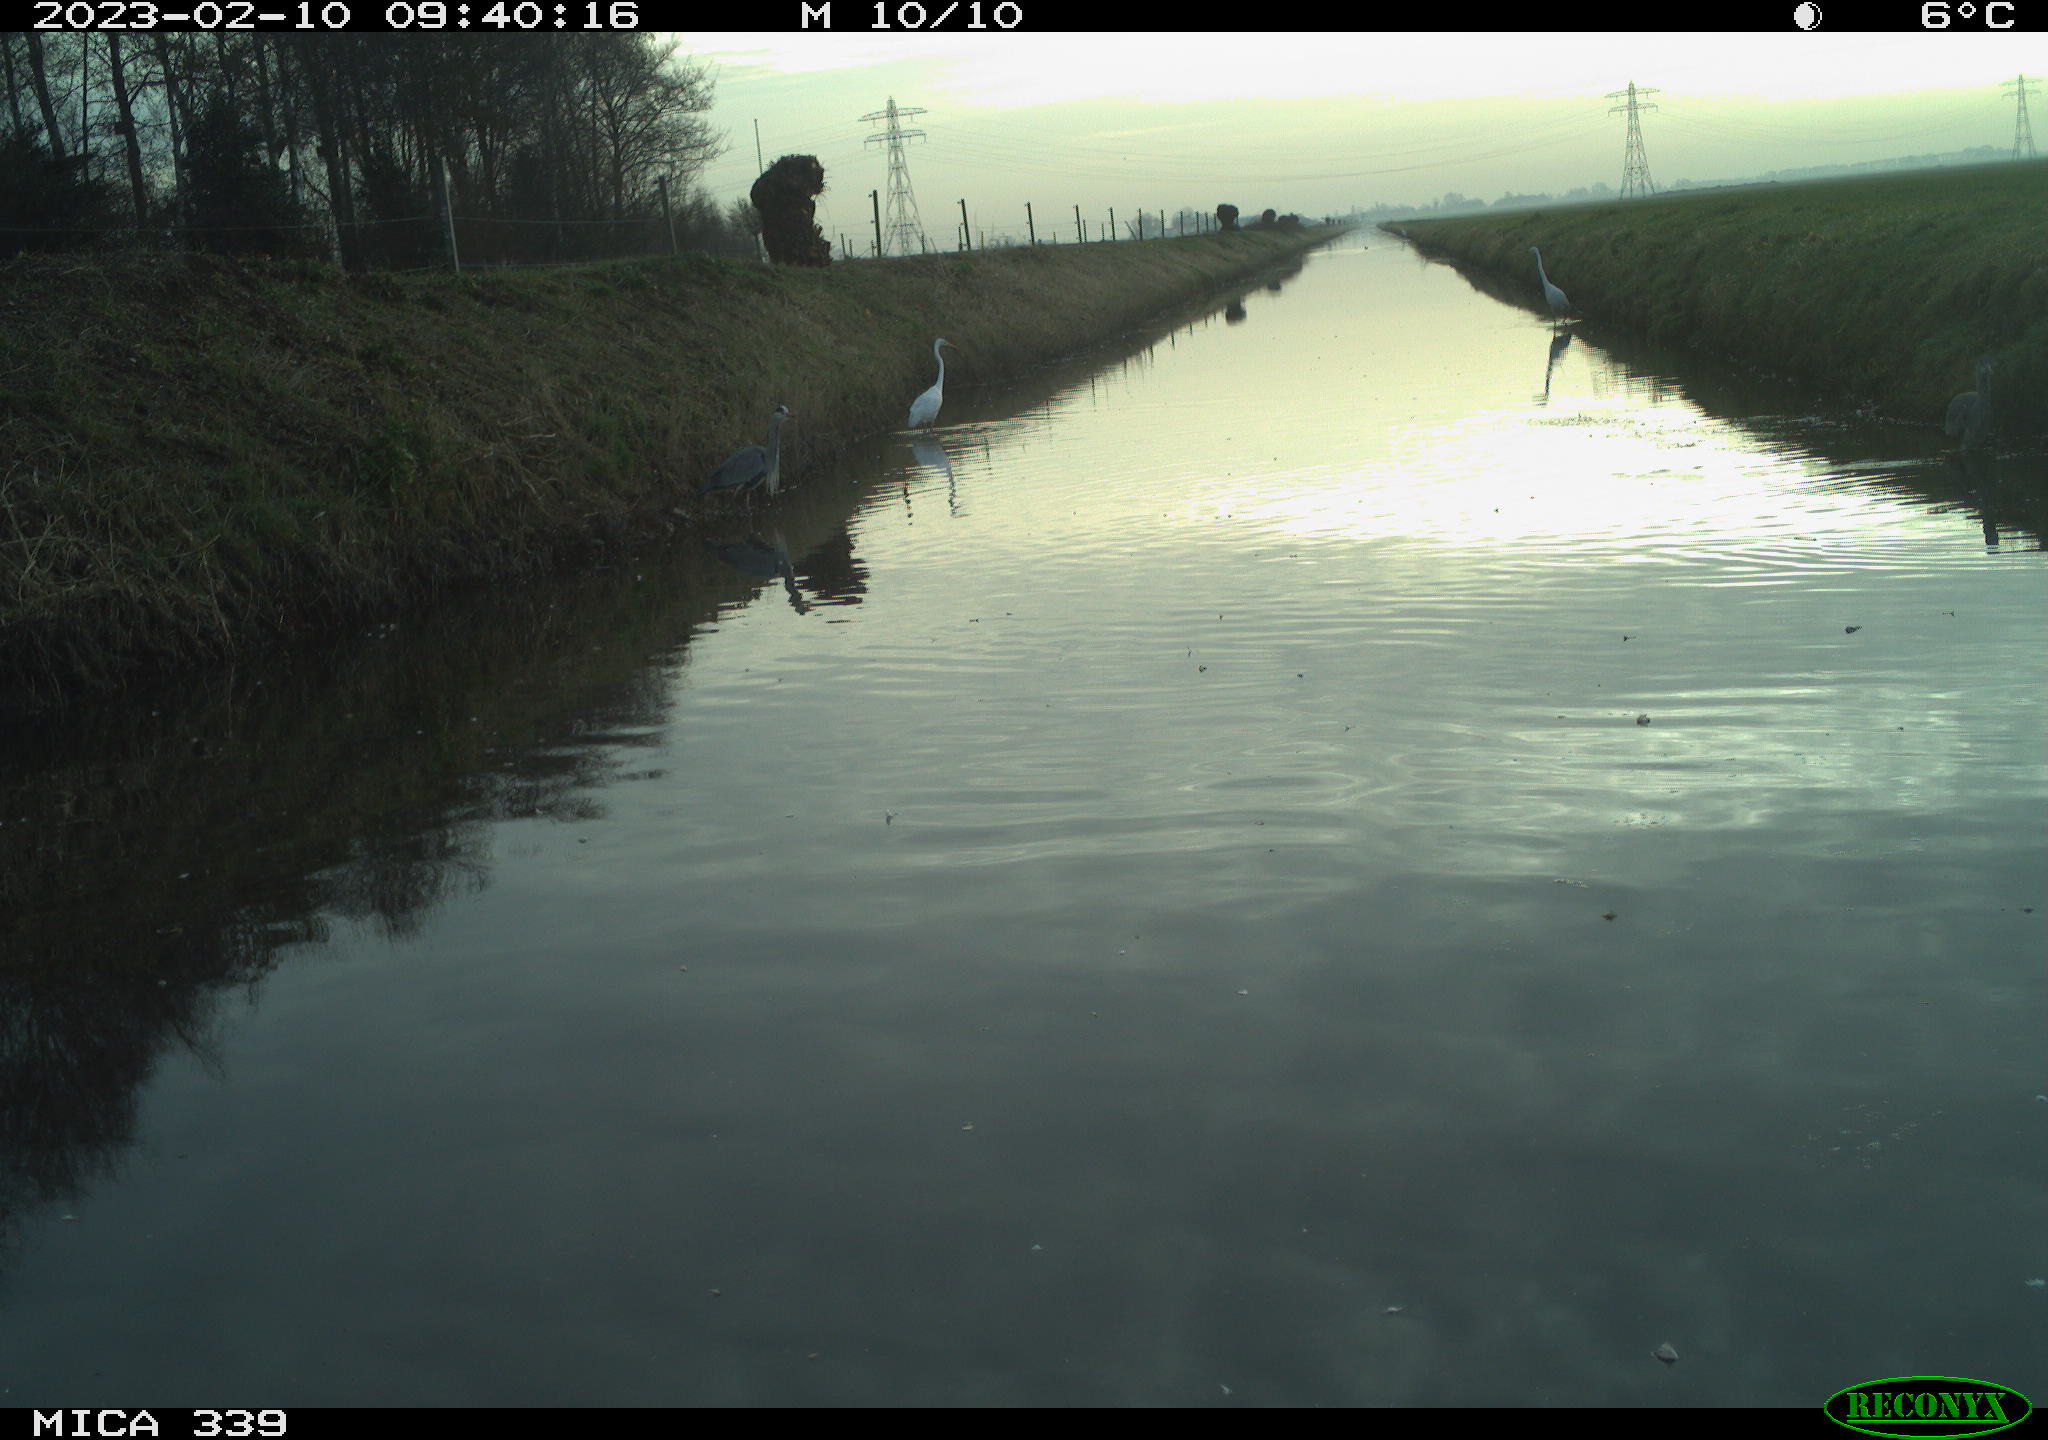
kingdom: Animalia
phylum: Chordata
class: Aves
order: Pelecaniformes
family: Ardeidae
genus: Ardea
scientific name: Ardea cinerea
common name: Grey heron
